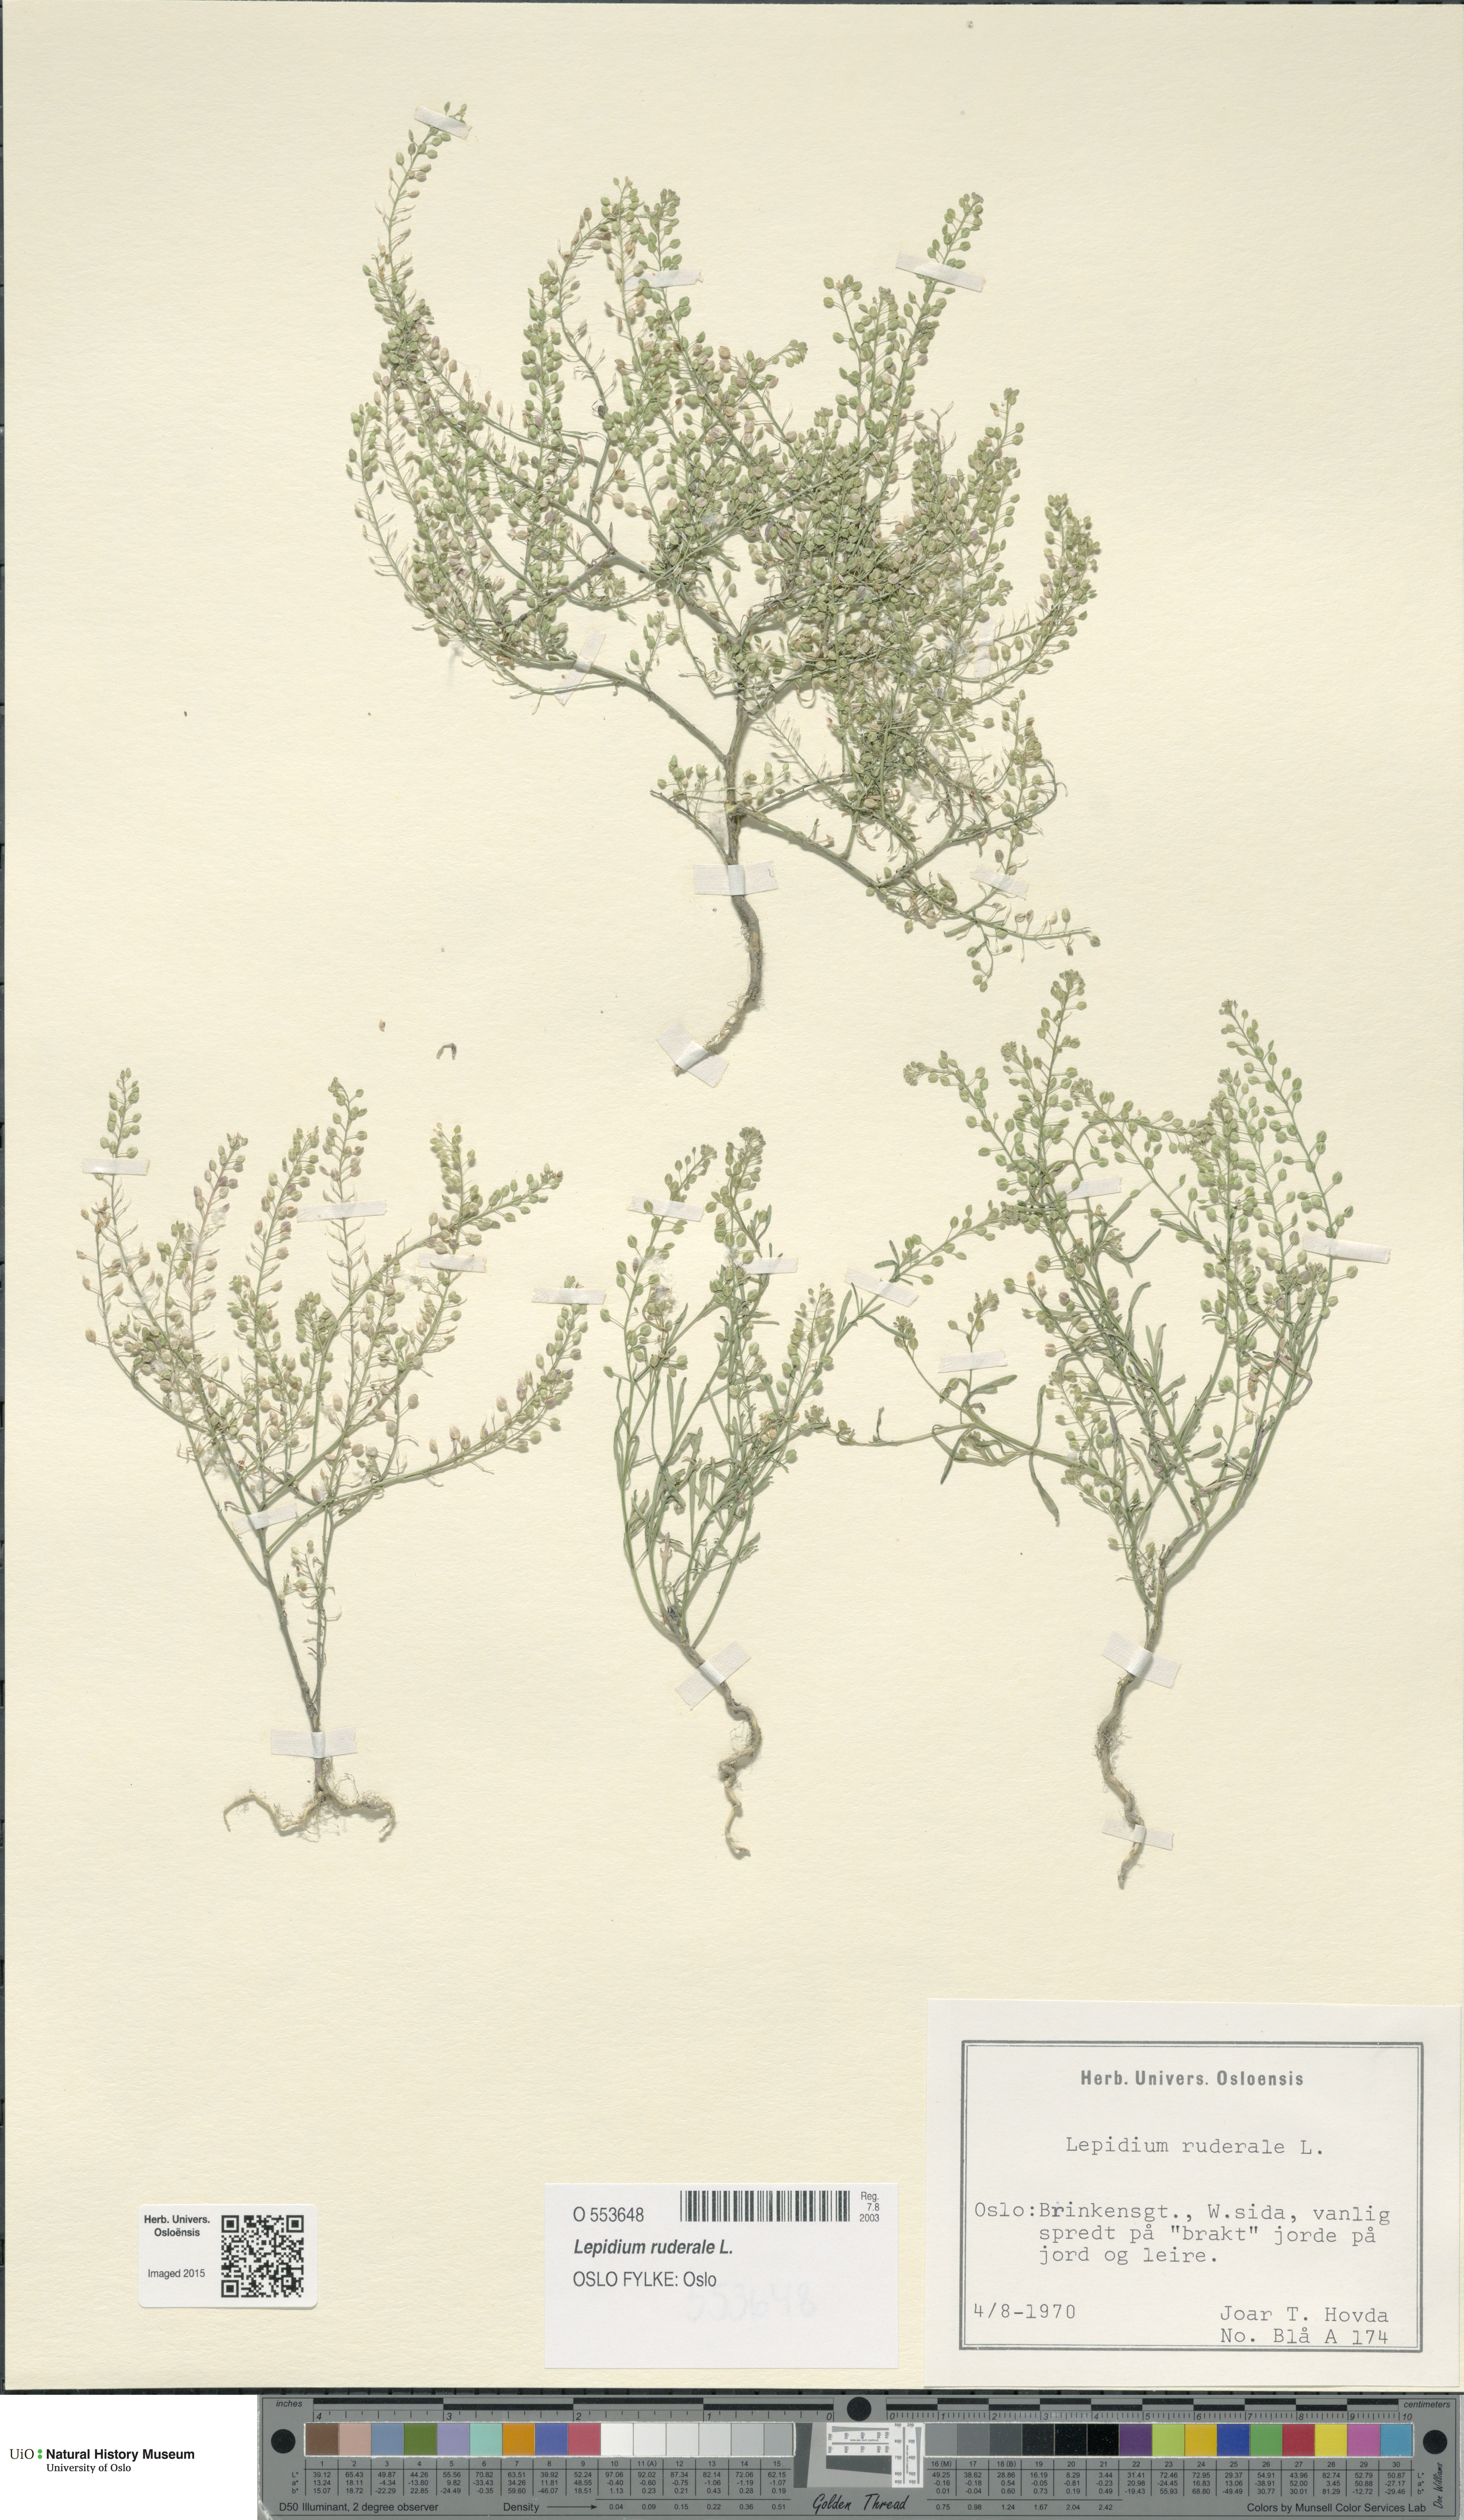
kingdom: Plantae
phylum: Tracheophyta
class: Magnoliopsida
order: Brassicales
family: Brassicaceae
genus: Lepidium
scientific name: Lepidium ruderale
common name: Narrow-leaved pepperwort
